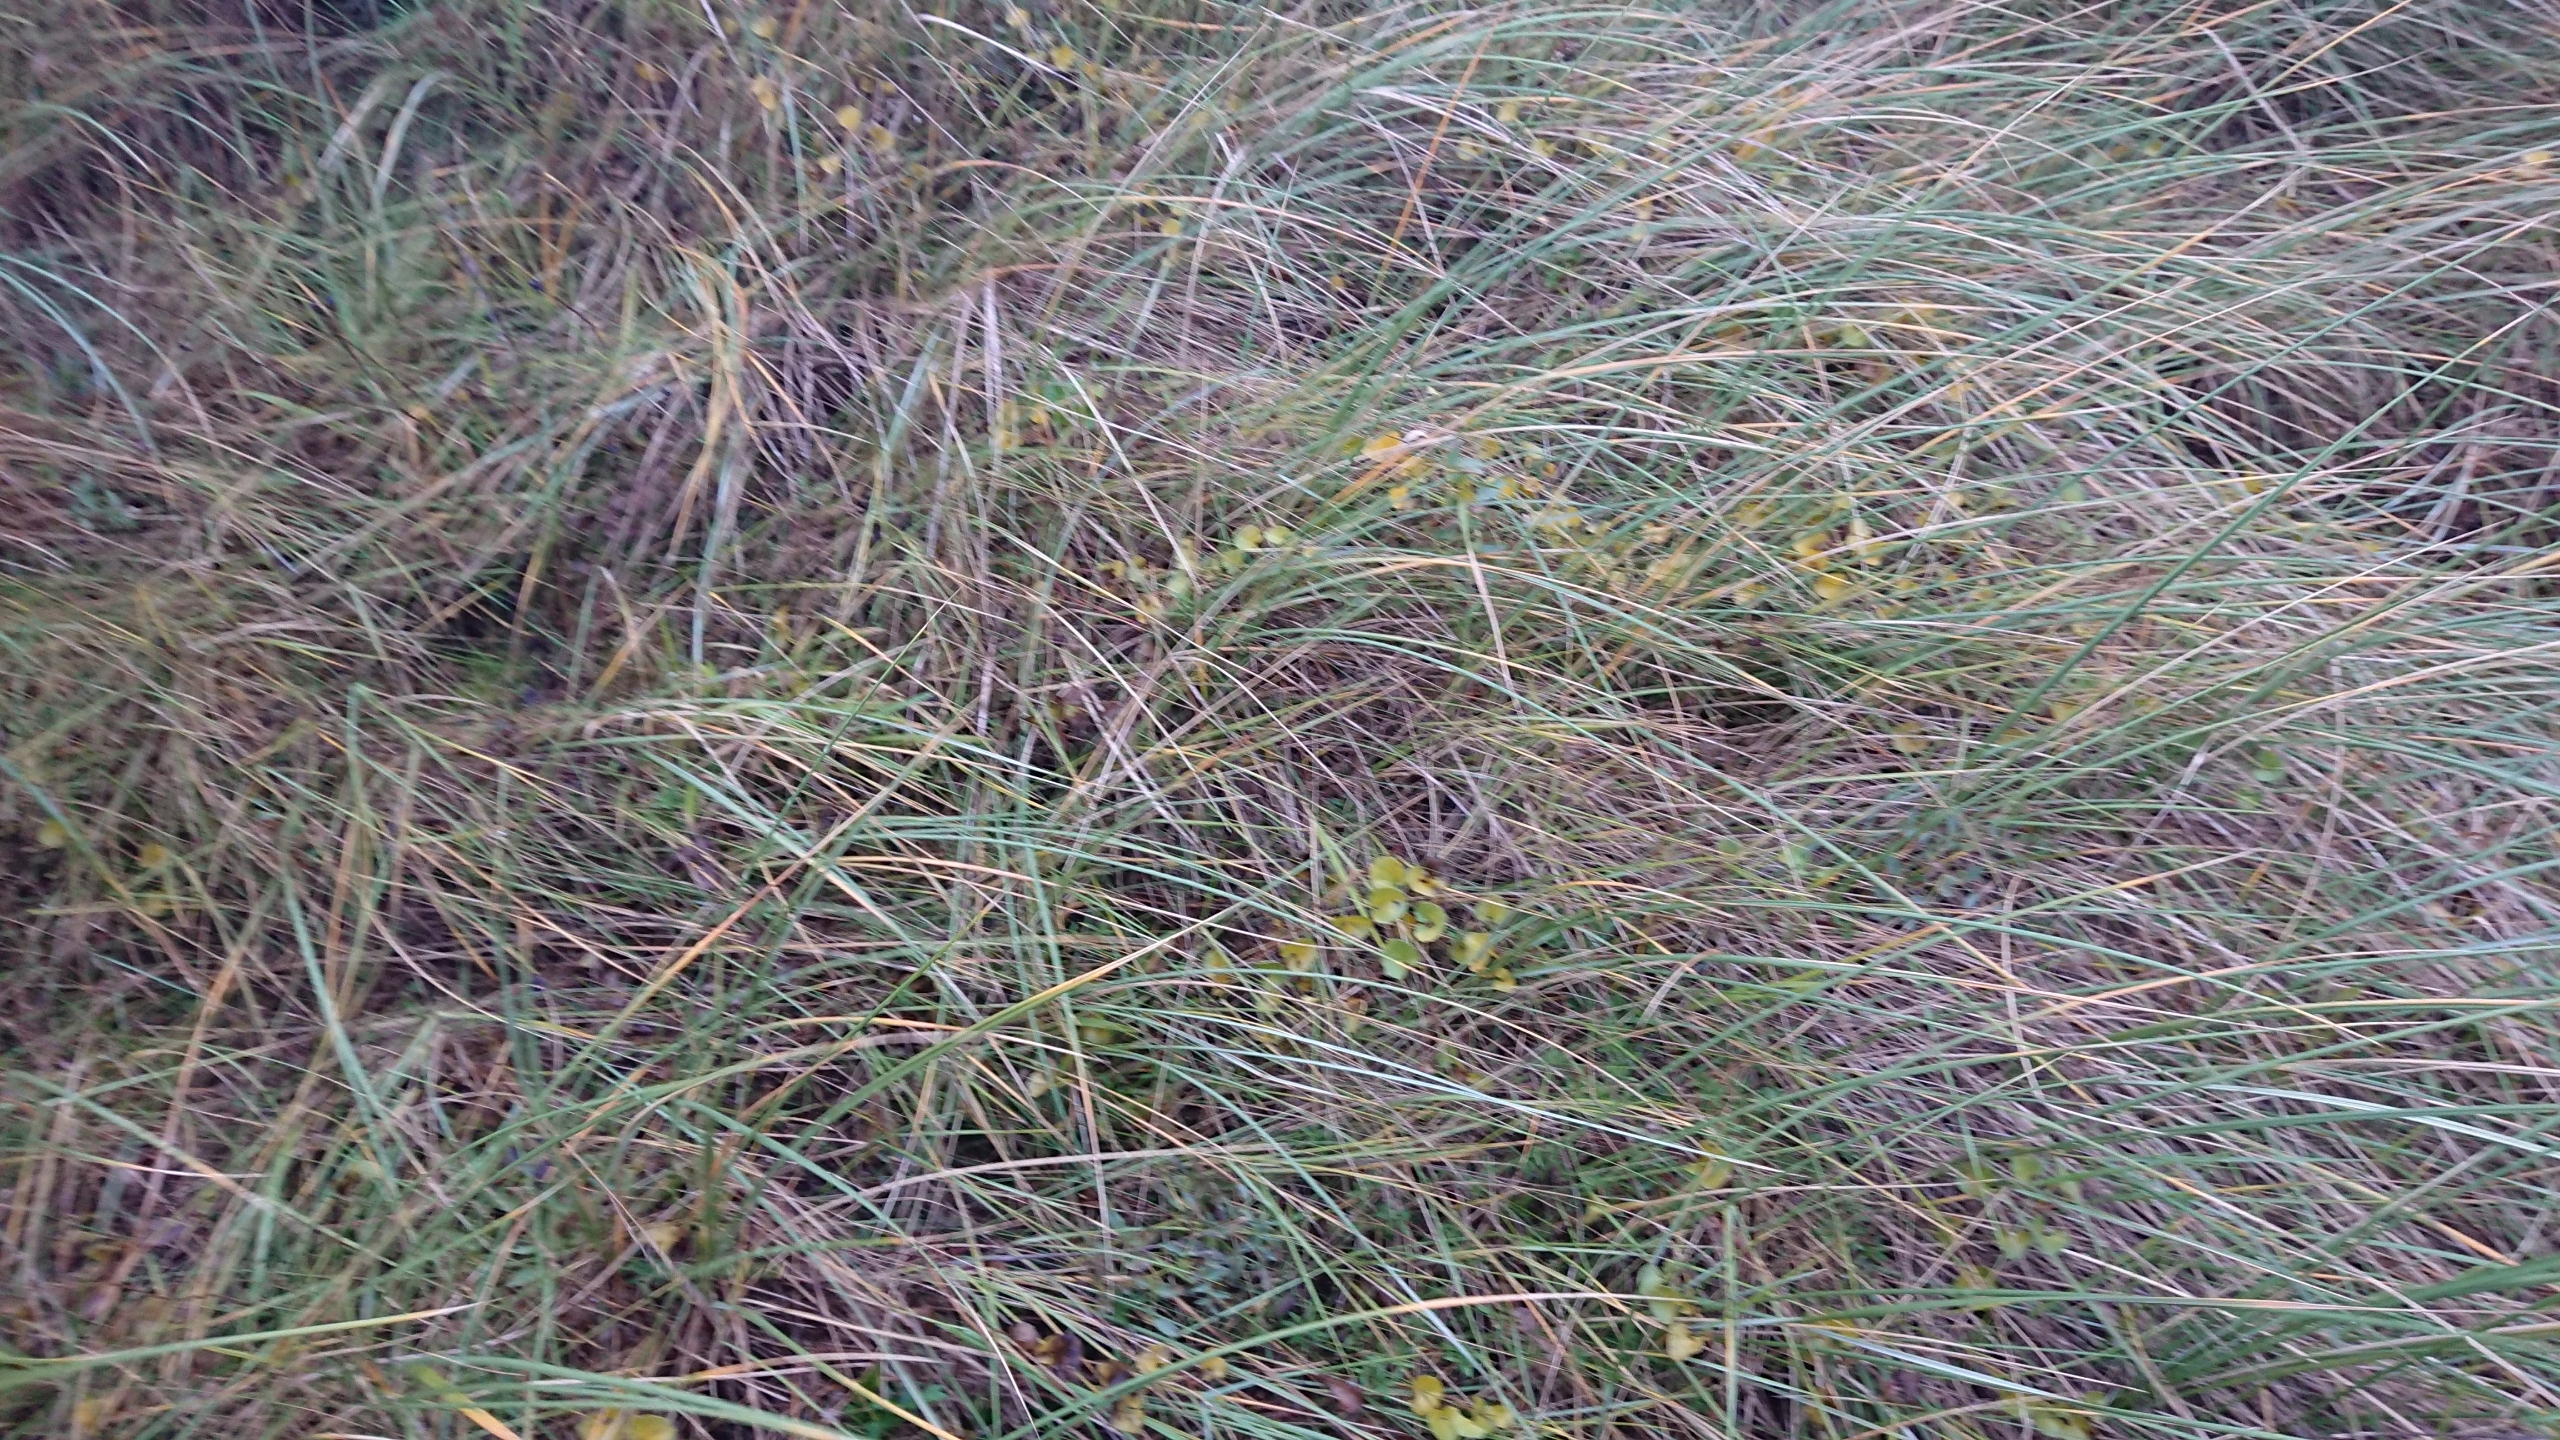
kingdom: Plantae
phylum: Tracheophyta
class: Magnoliopsida
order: Solanales
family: Convolvulaceae
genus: Calystegia
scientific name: Calystegia soldanella
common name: Strand-snerle
